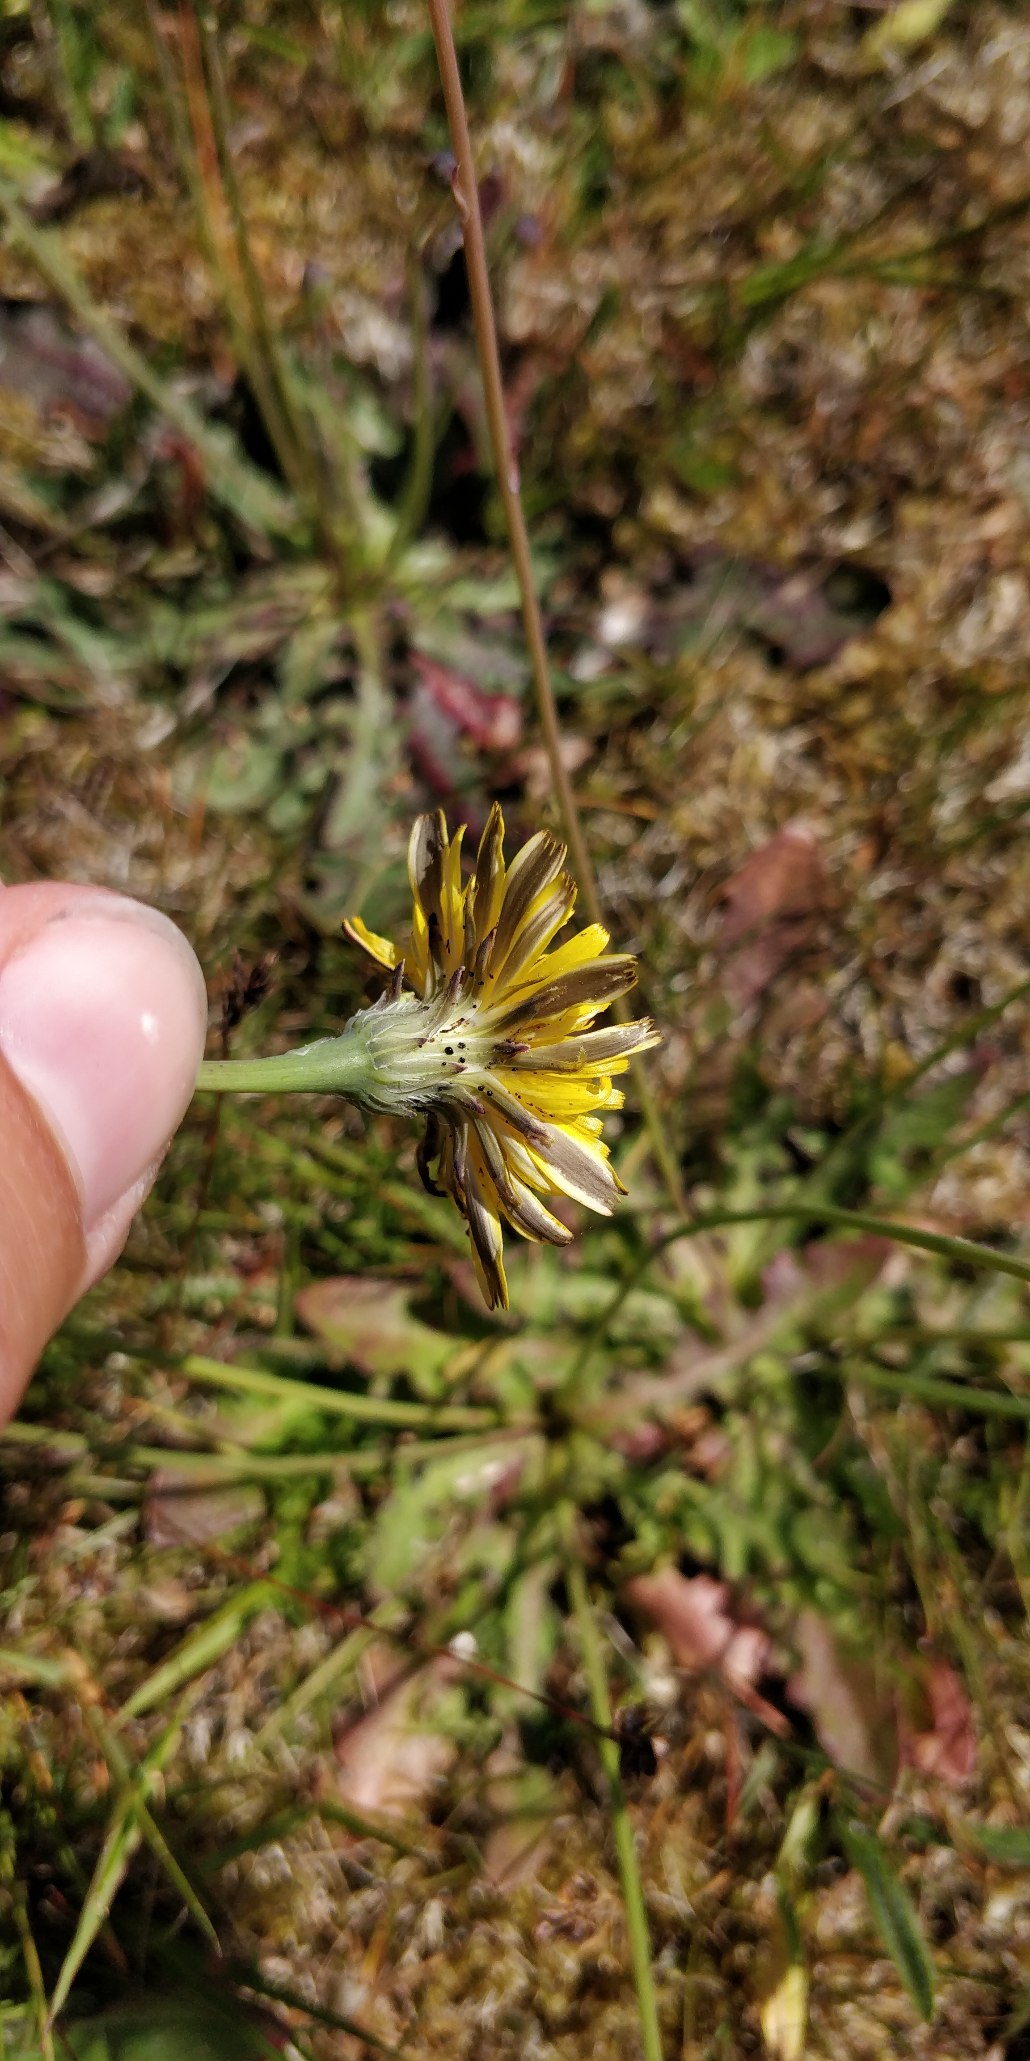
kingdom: Plantae
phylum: Tracheophyta
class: Magnoliopsida
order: Asterales
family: Asteraceae
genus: Hypochaeris
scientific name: Hypochaeris radicata
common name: Almindelig kongepen
